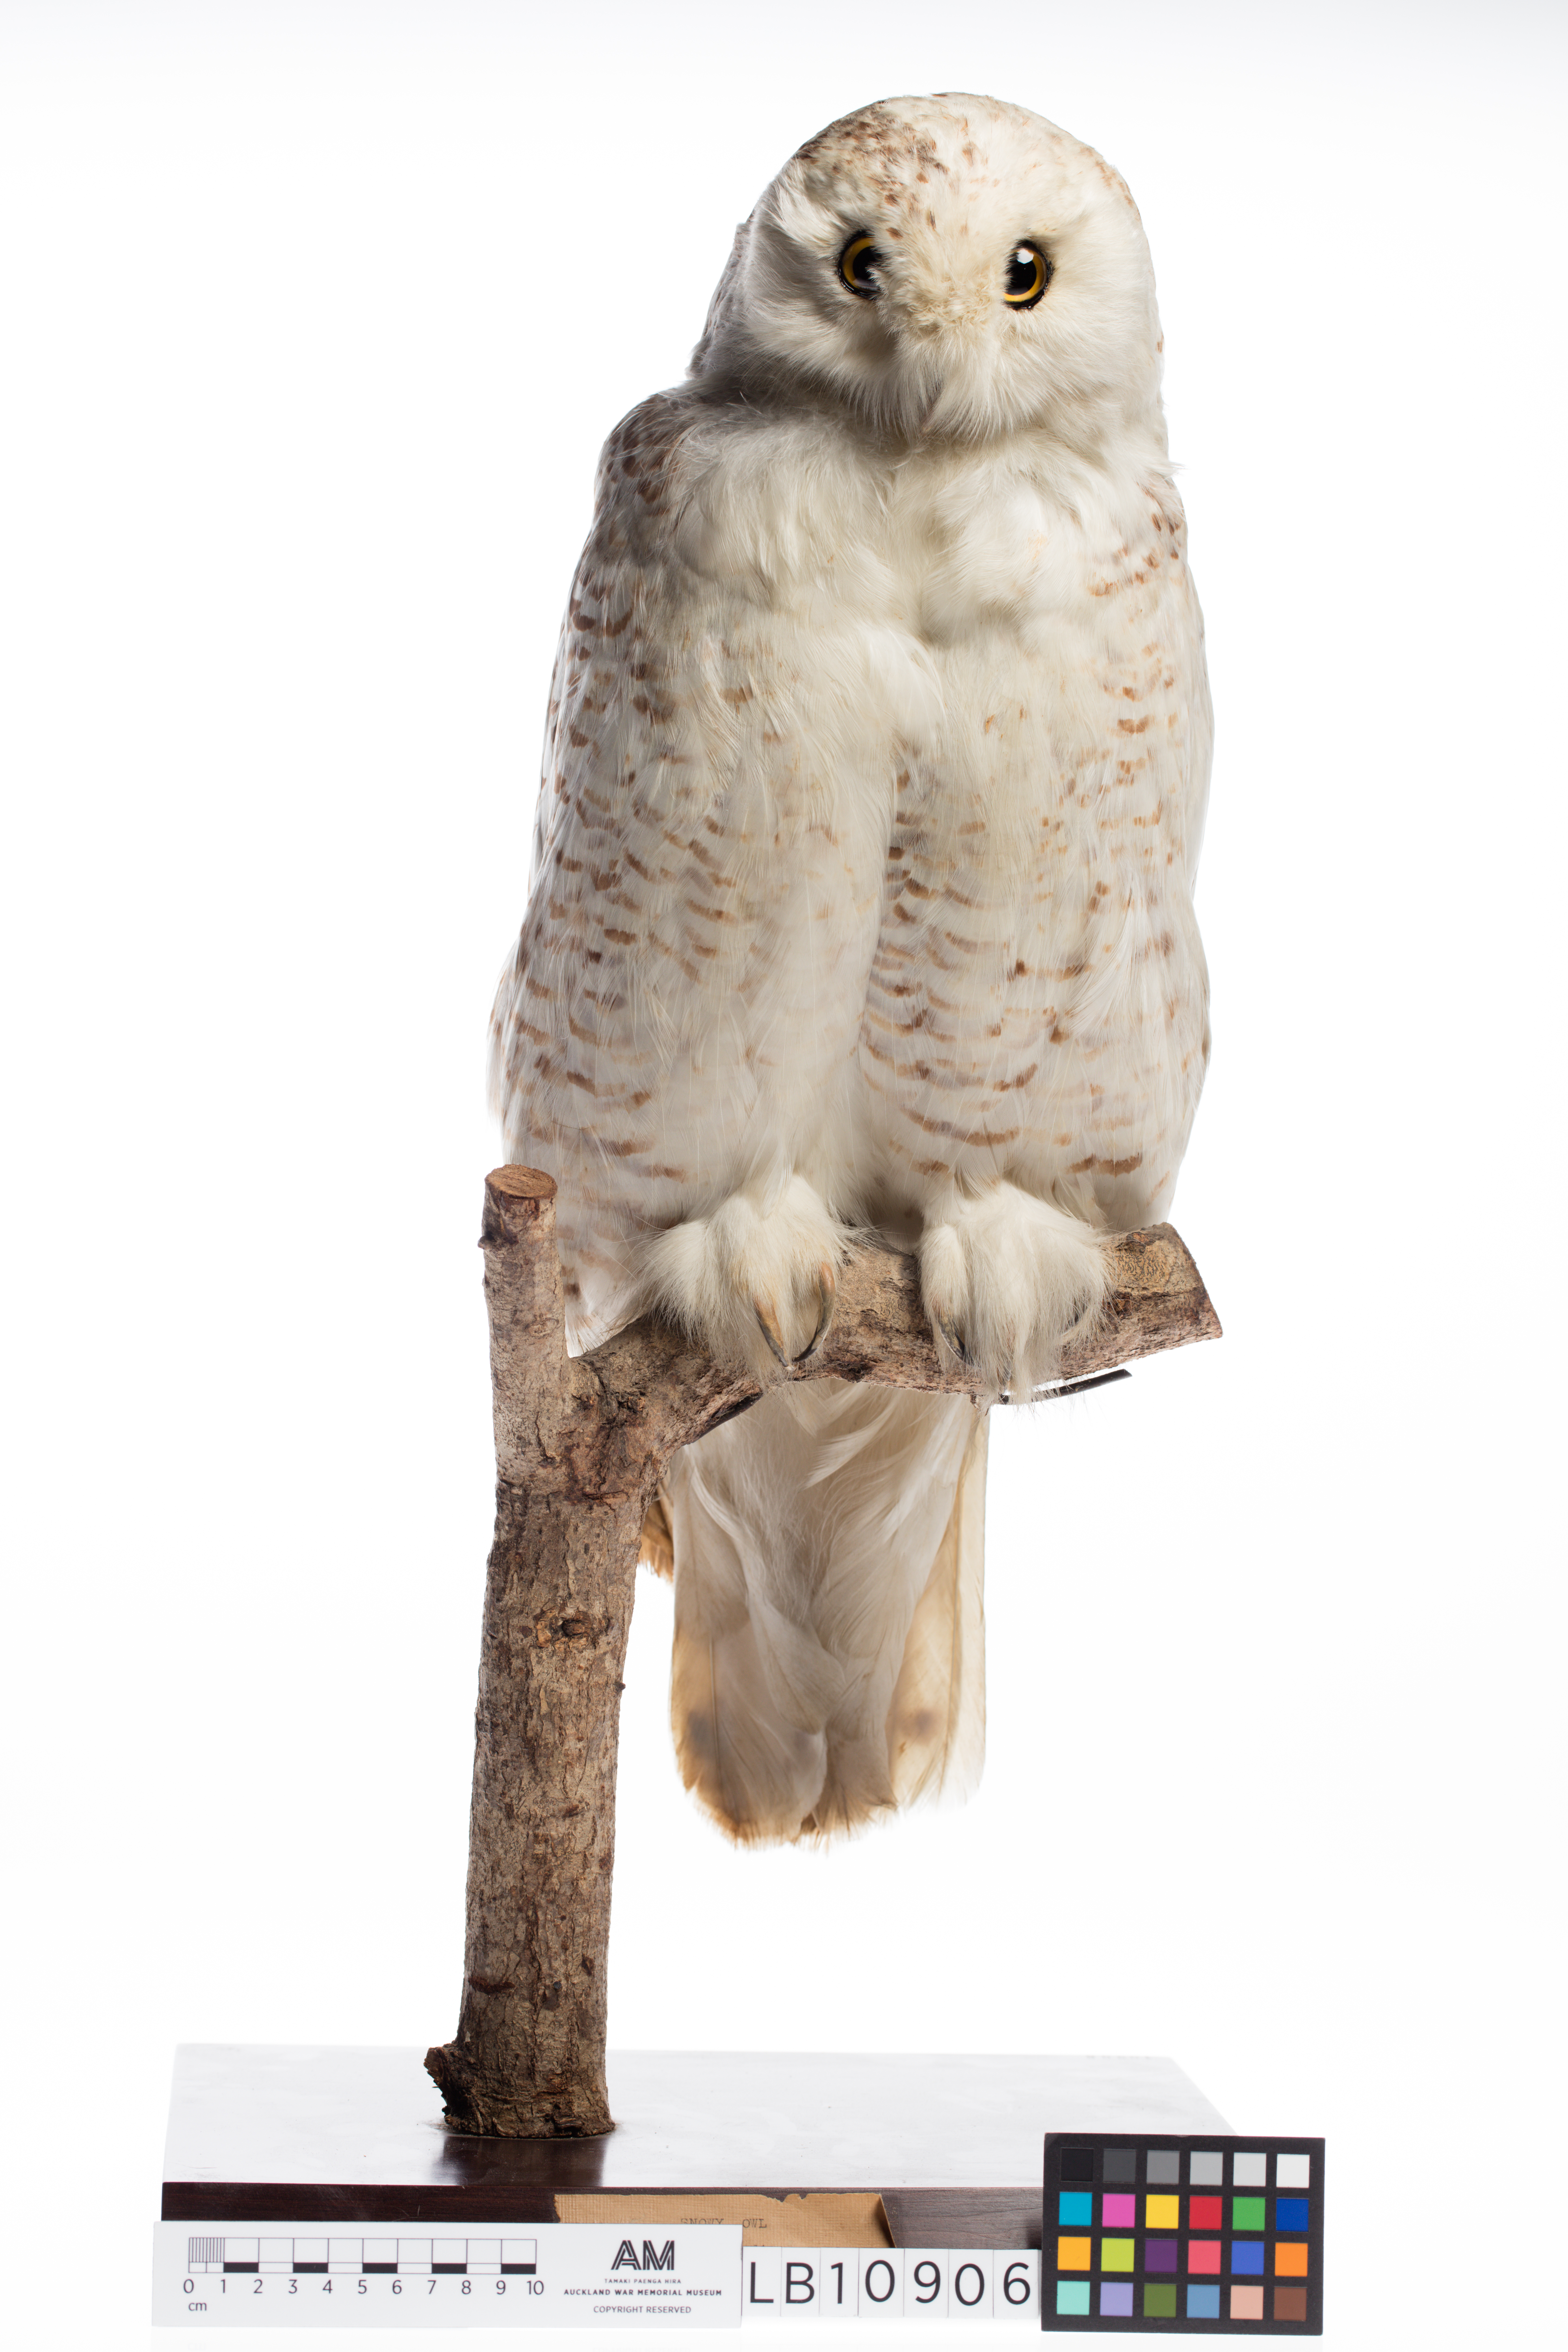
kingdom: Animalia
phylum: Chordata
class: Aves
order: Strigiformes
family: Strigidae
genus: Bubo
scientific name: Bubo scandiacus
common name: Snowy owl
